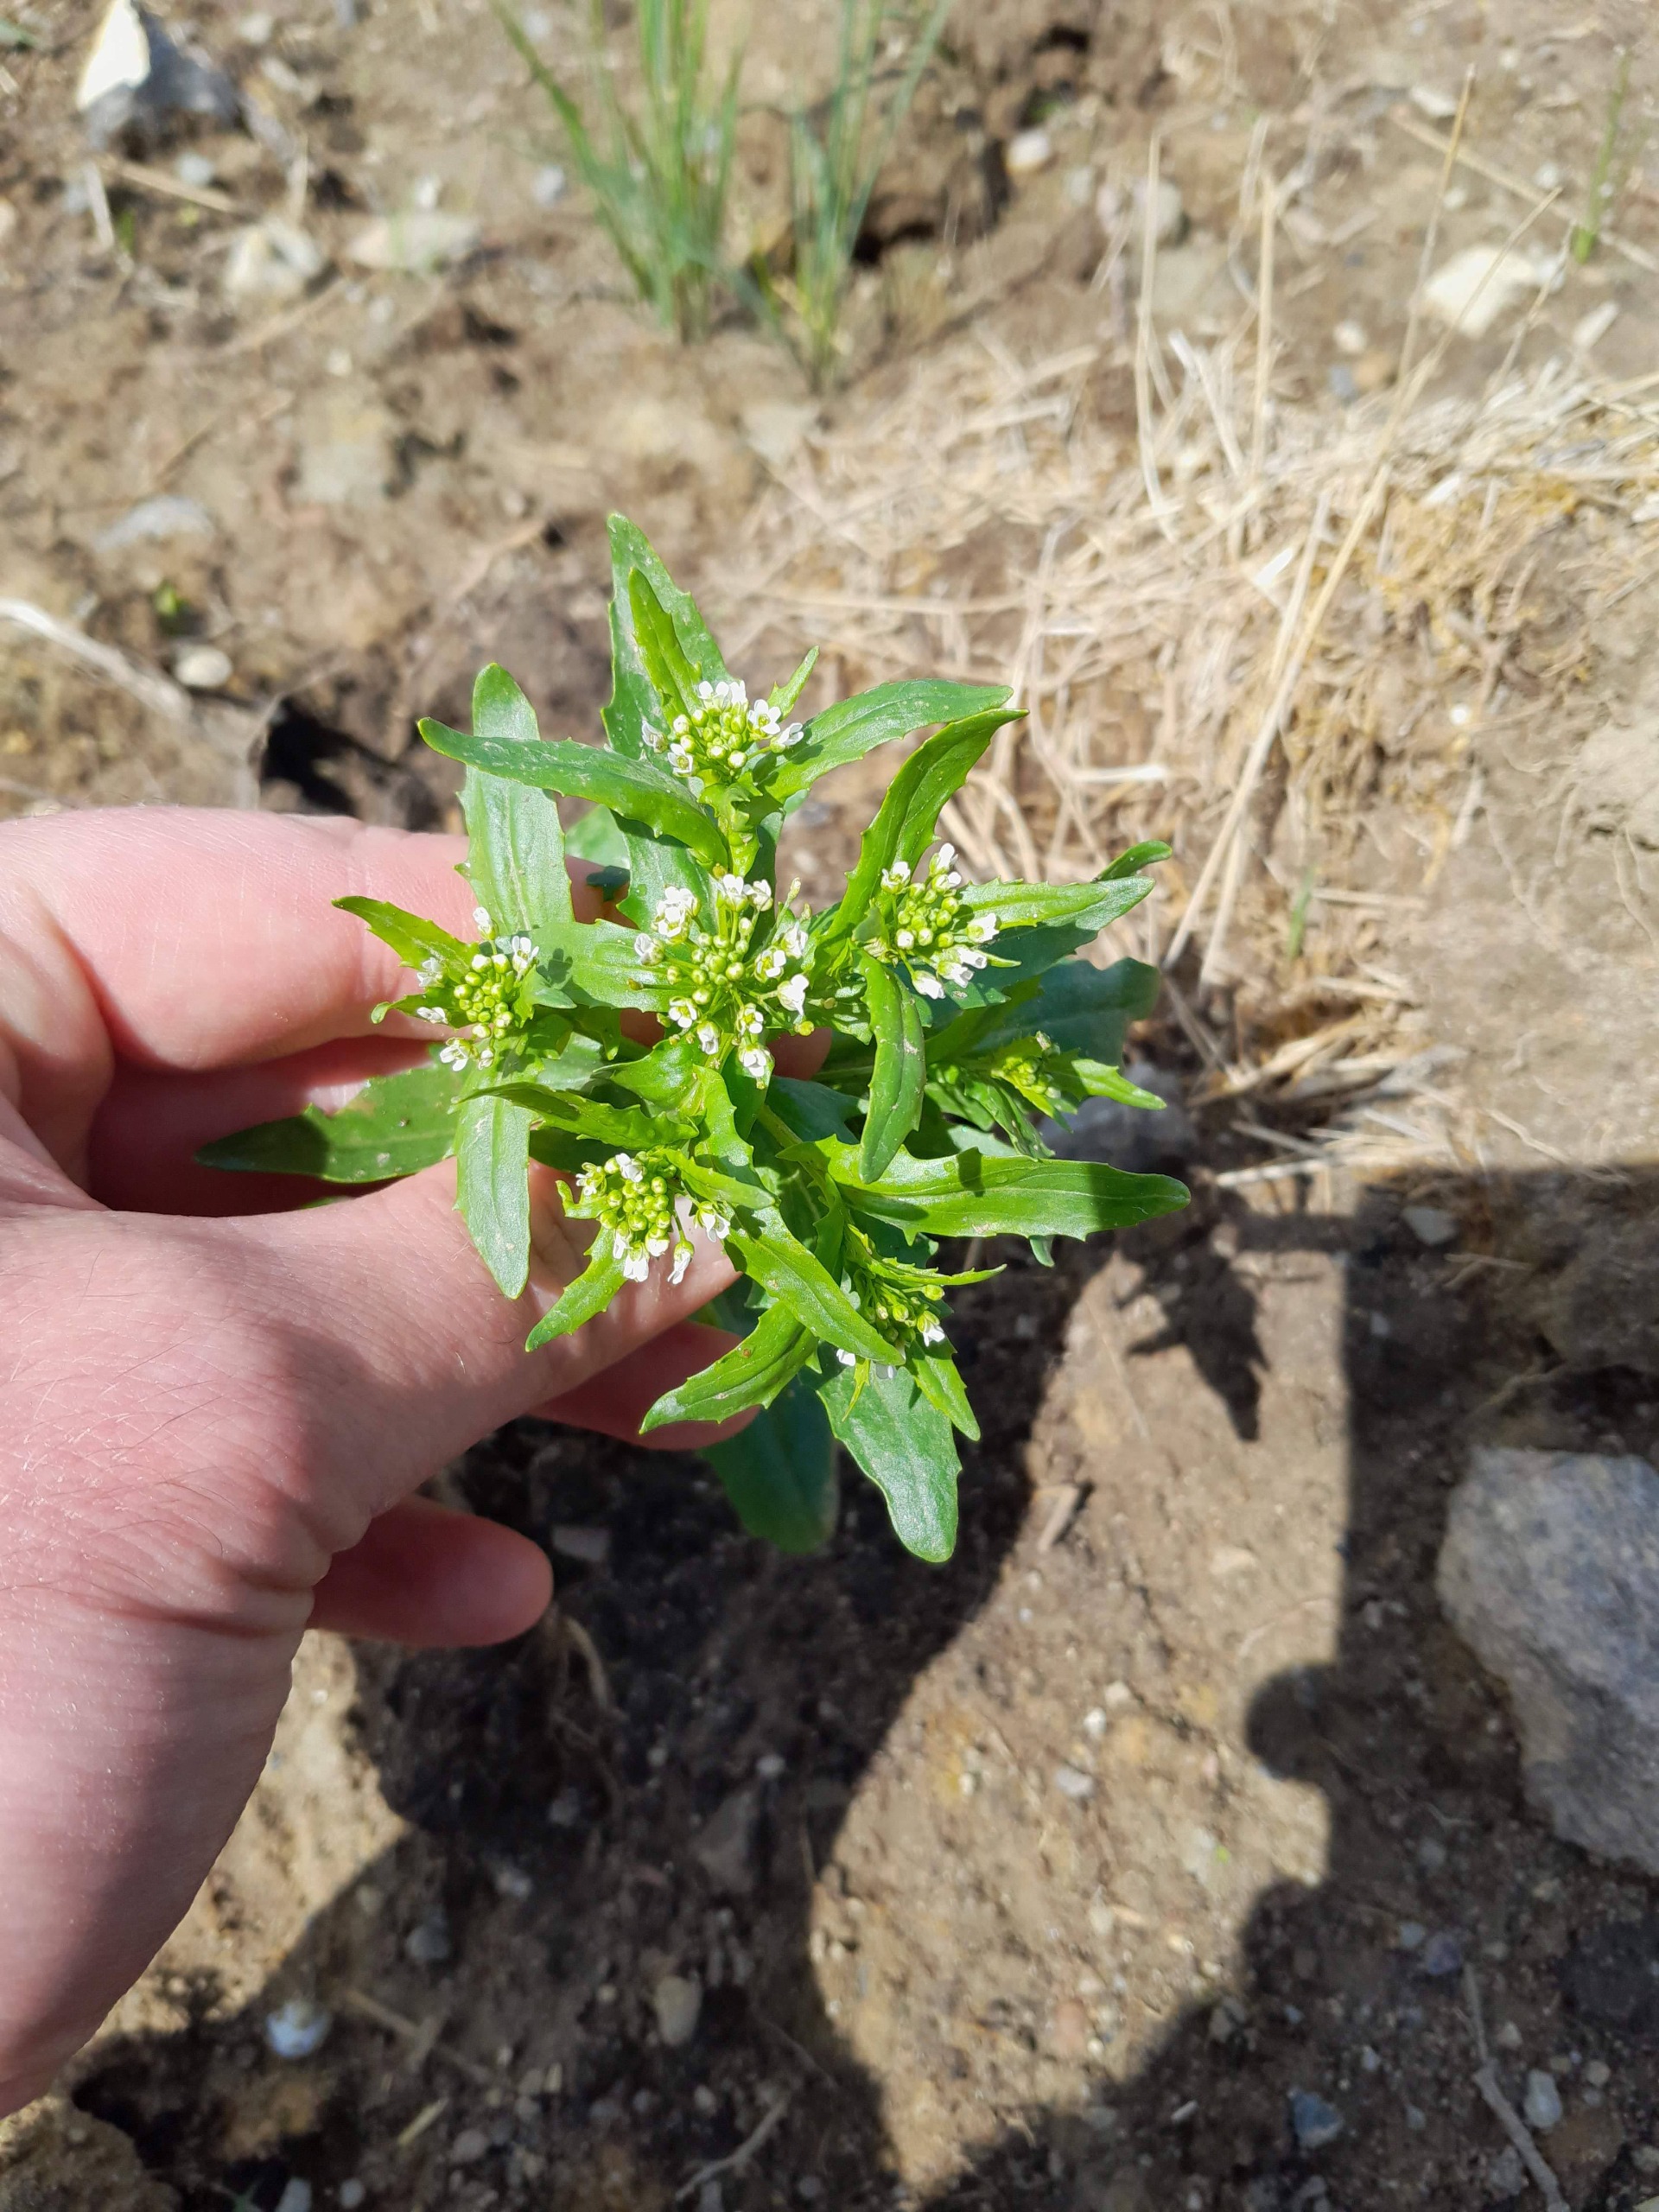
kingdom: Plantae
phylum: Tracheophyta
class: Magnoliopsida
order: Brassicales
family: Brassicaceae
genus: Thlaspi
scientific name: Thlaspi arvense
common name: Almindelig pengeurt
